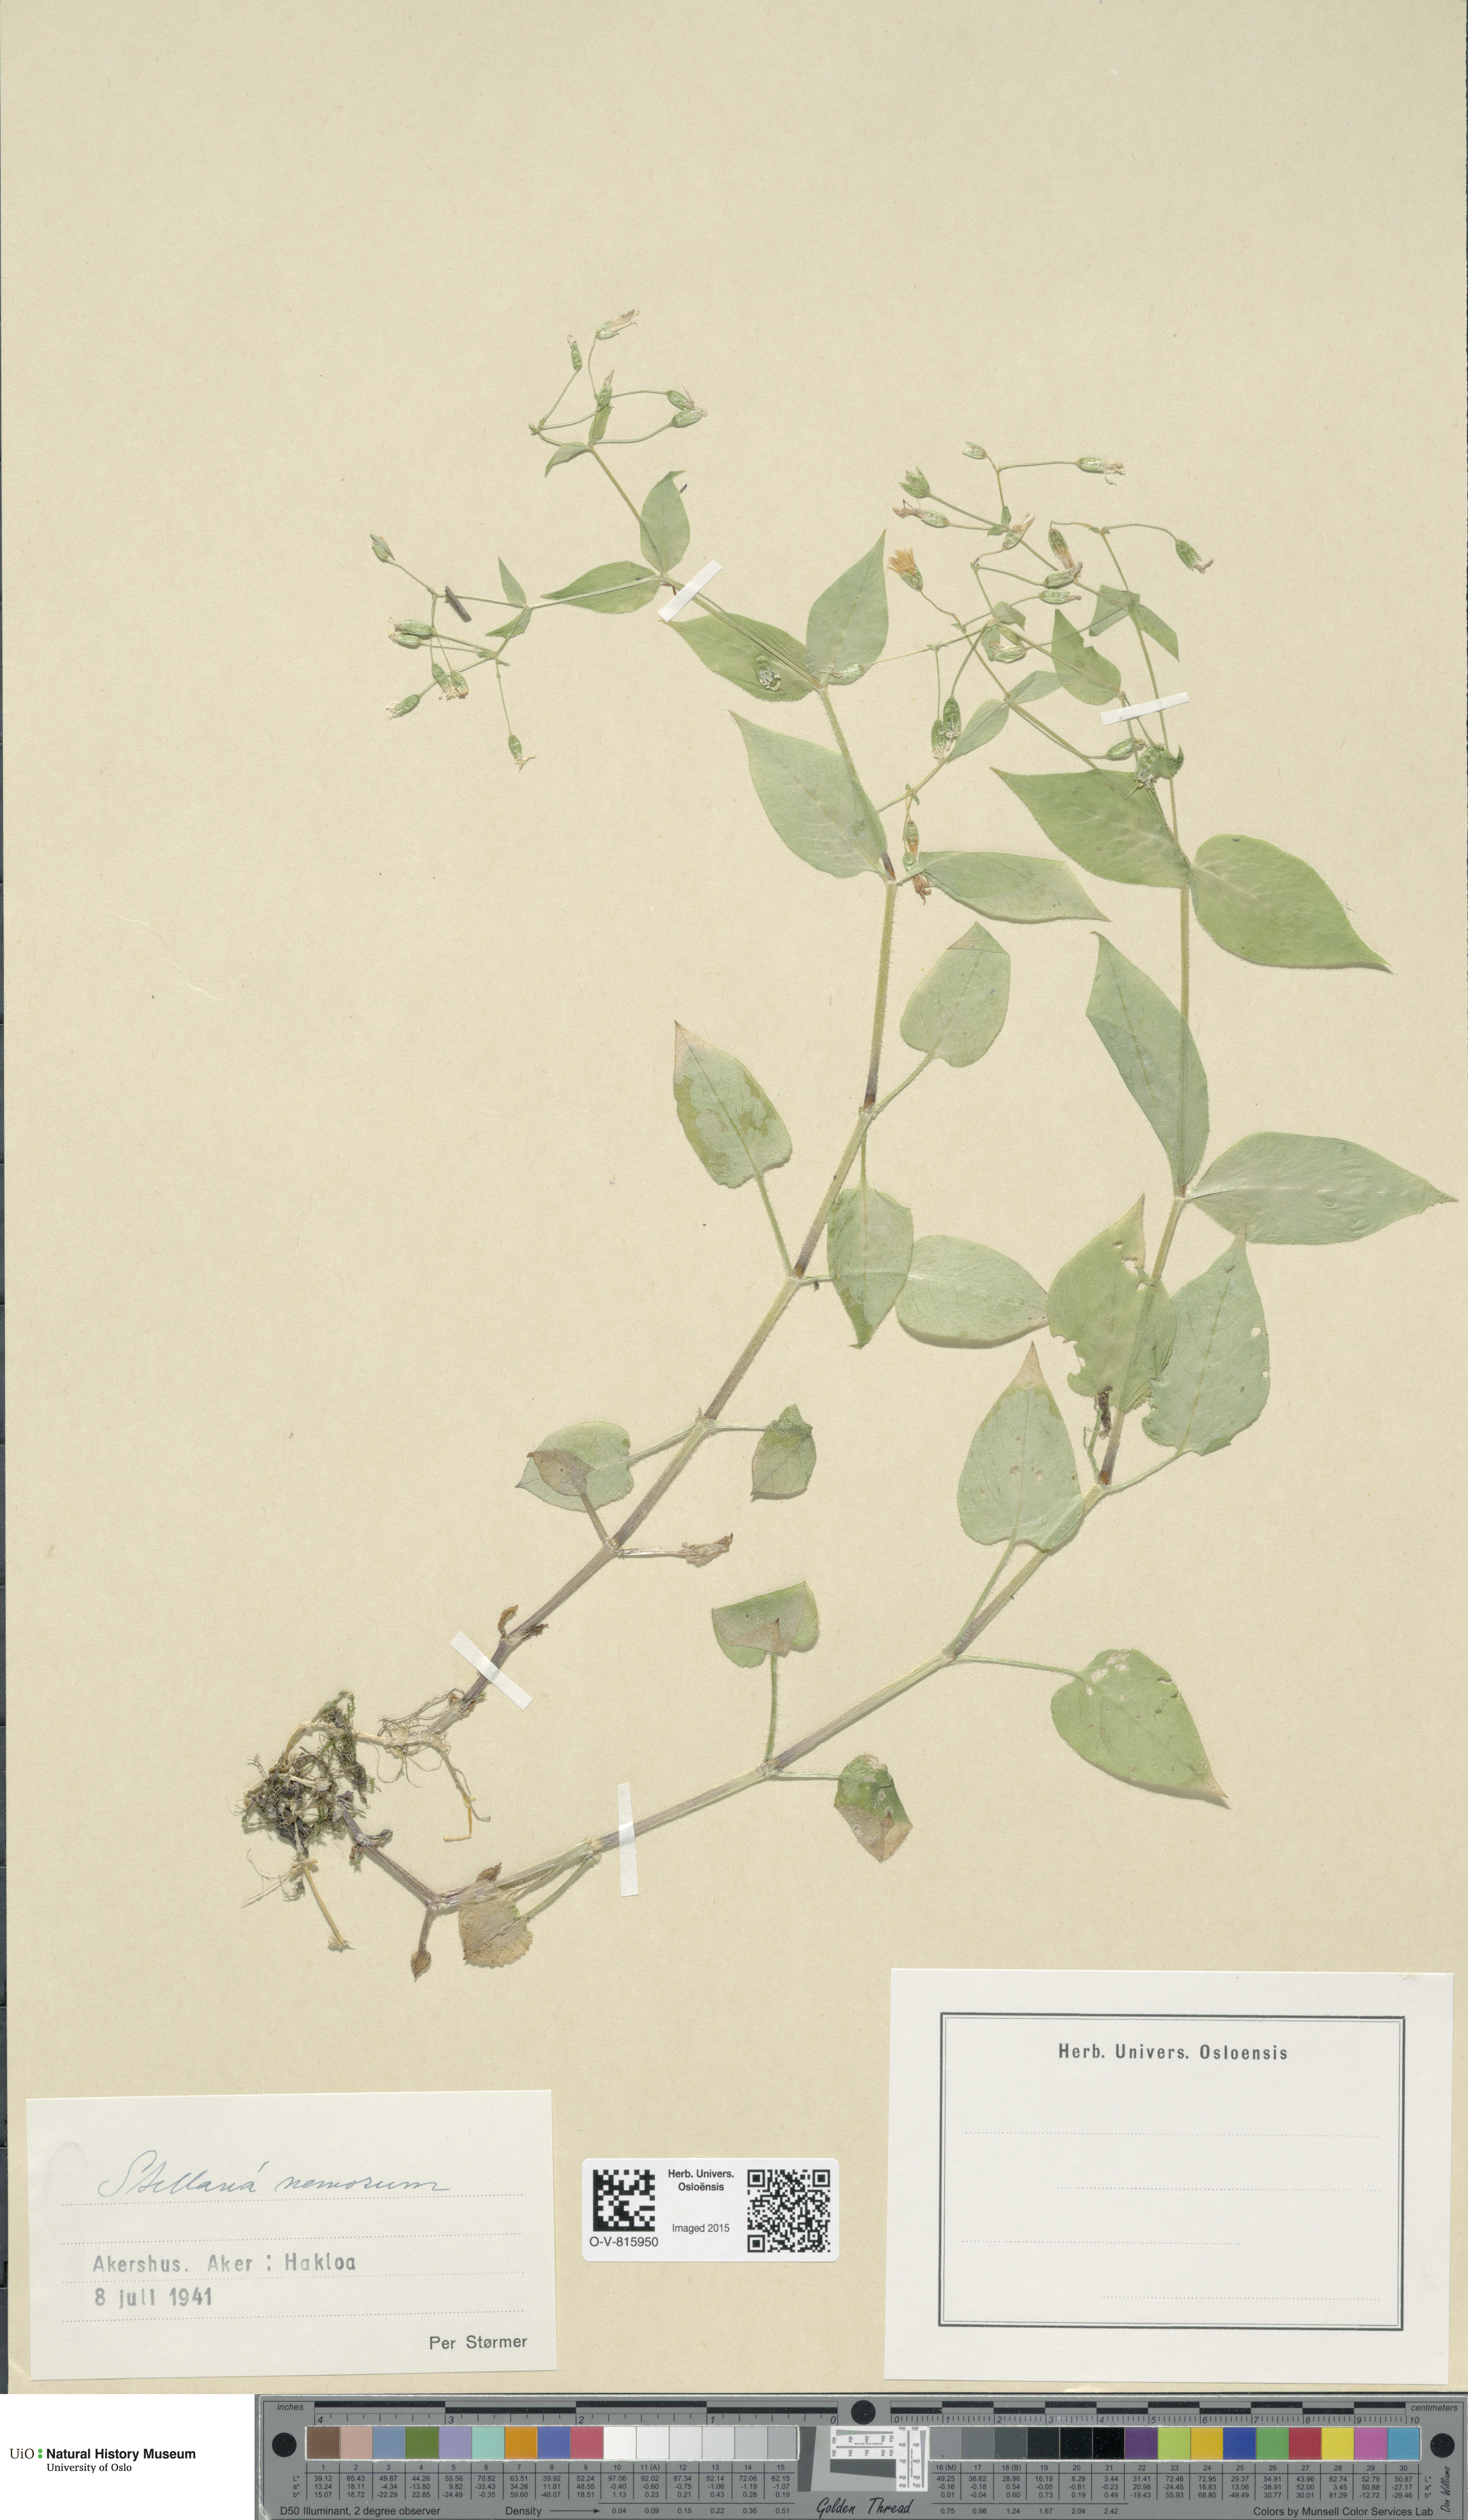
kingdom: Plantae
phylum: Tracheophyta
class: Magnoliopsida
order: Caryophyllales
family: Caryophyllaceae
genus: Stellaria
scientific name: Stellaria nemorum
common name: Wood stitchwort
